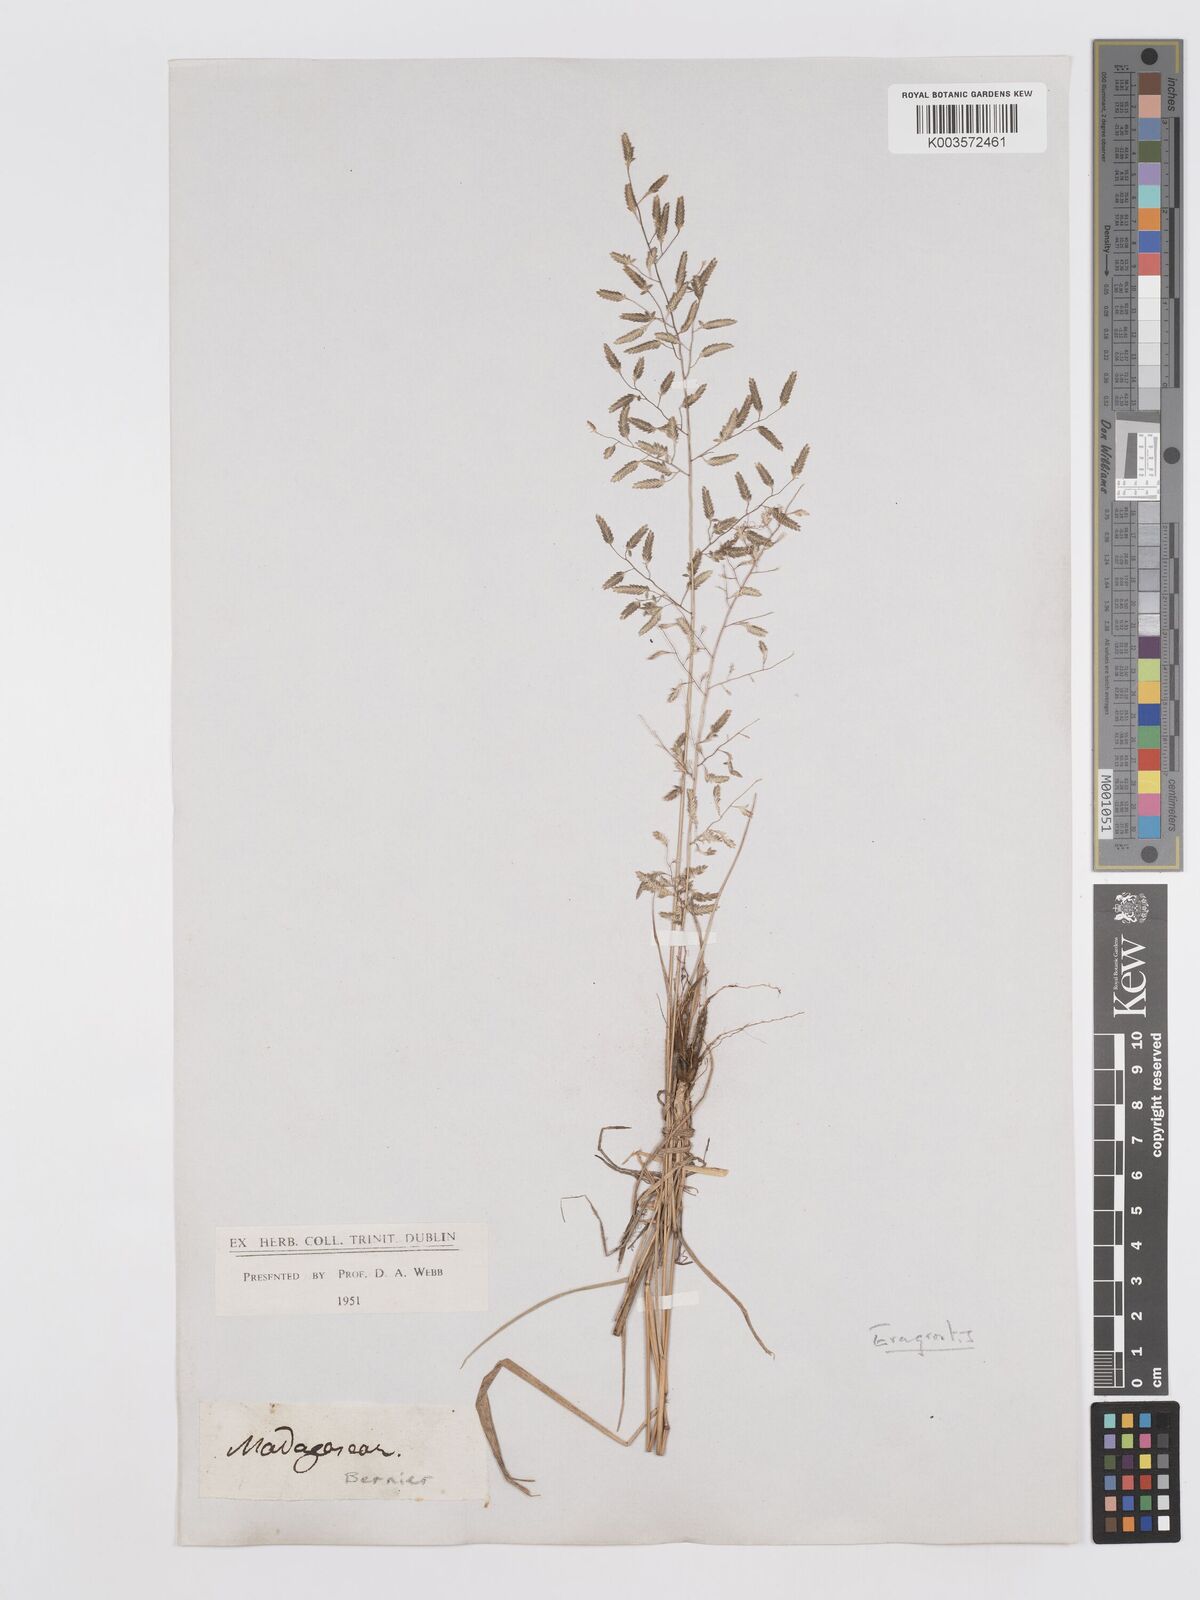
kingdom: Plantae
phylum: Tracheophyta
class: Liliopsida
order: Poales
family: Poaceae
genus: Eragrostis
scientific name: Eragrostis cilianensis
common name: Stinkgrass
